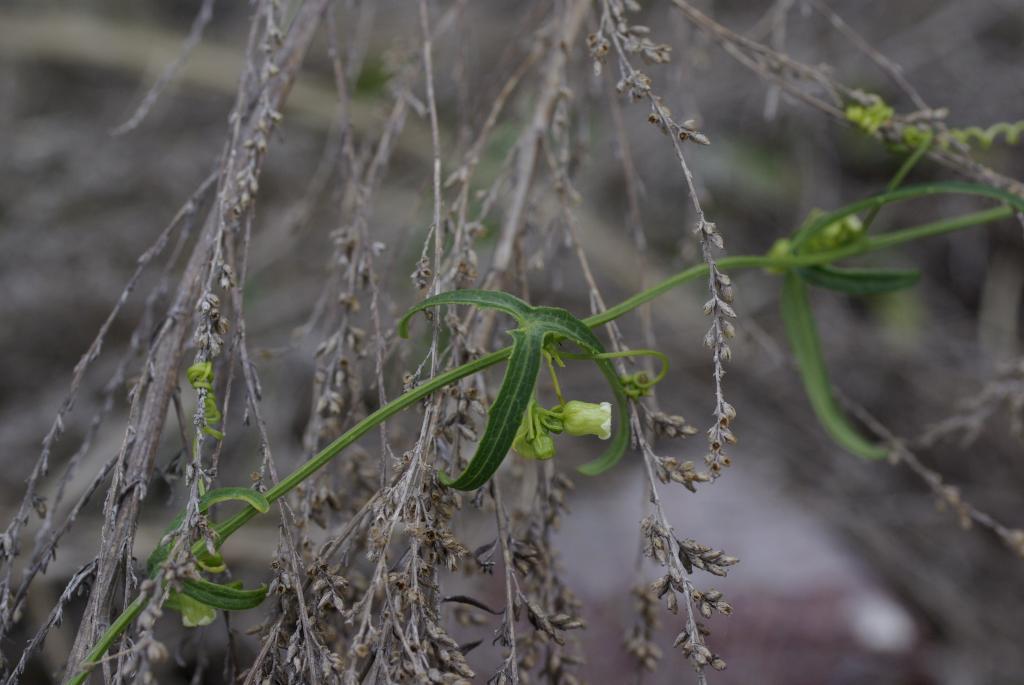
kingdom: Plantae
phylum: Tracheophyta
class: Magnoliopsida
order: Cucurbitales
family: Cucurbitaceae
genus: Solena
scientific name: Solena amplexicaulis
